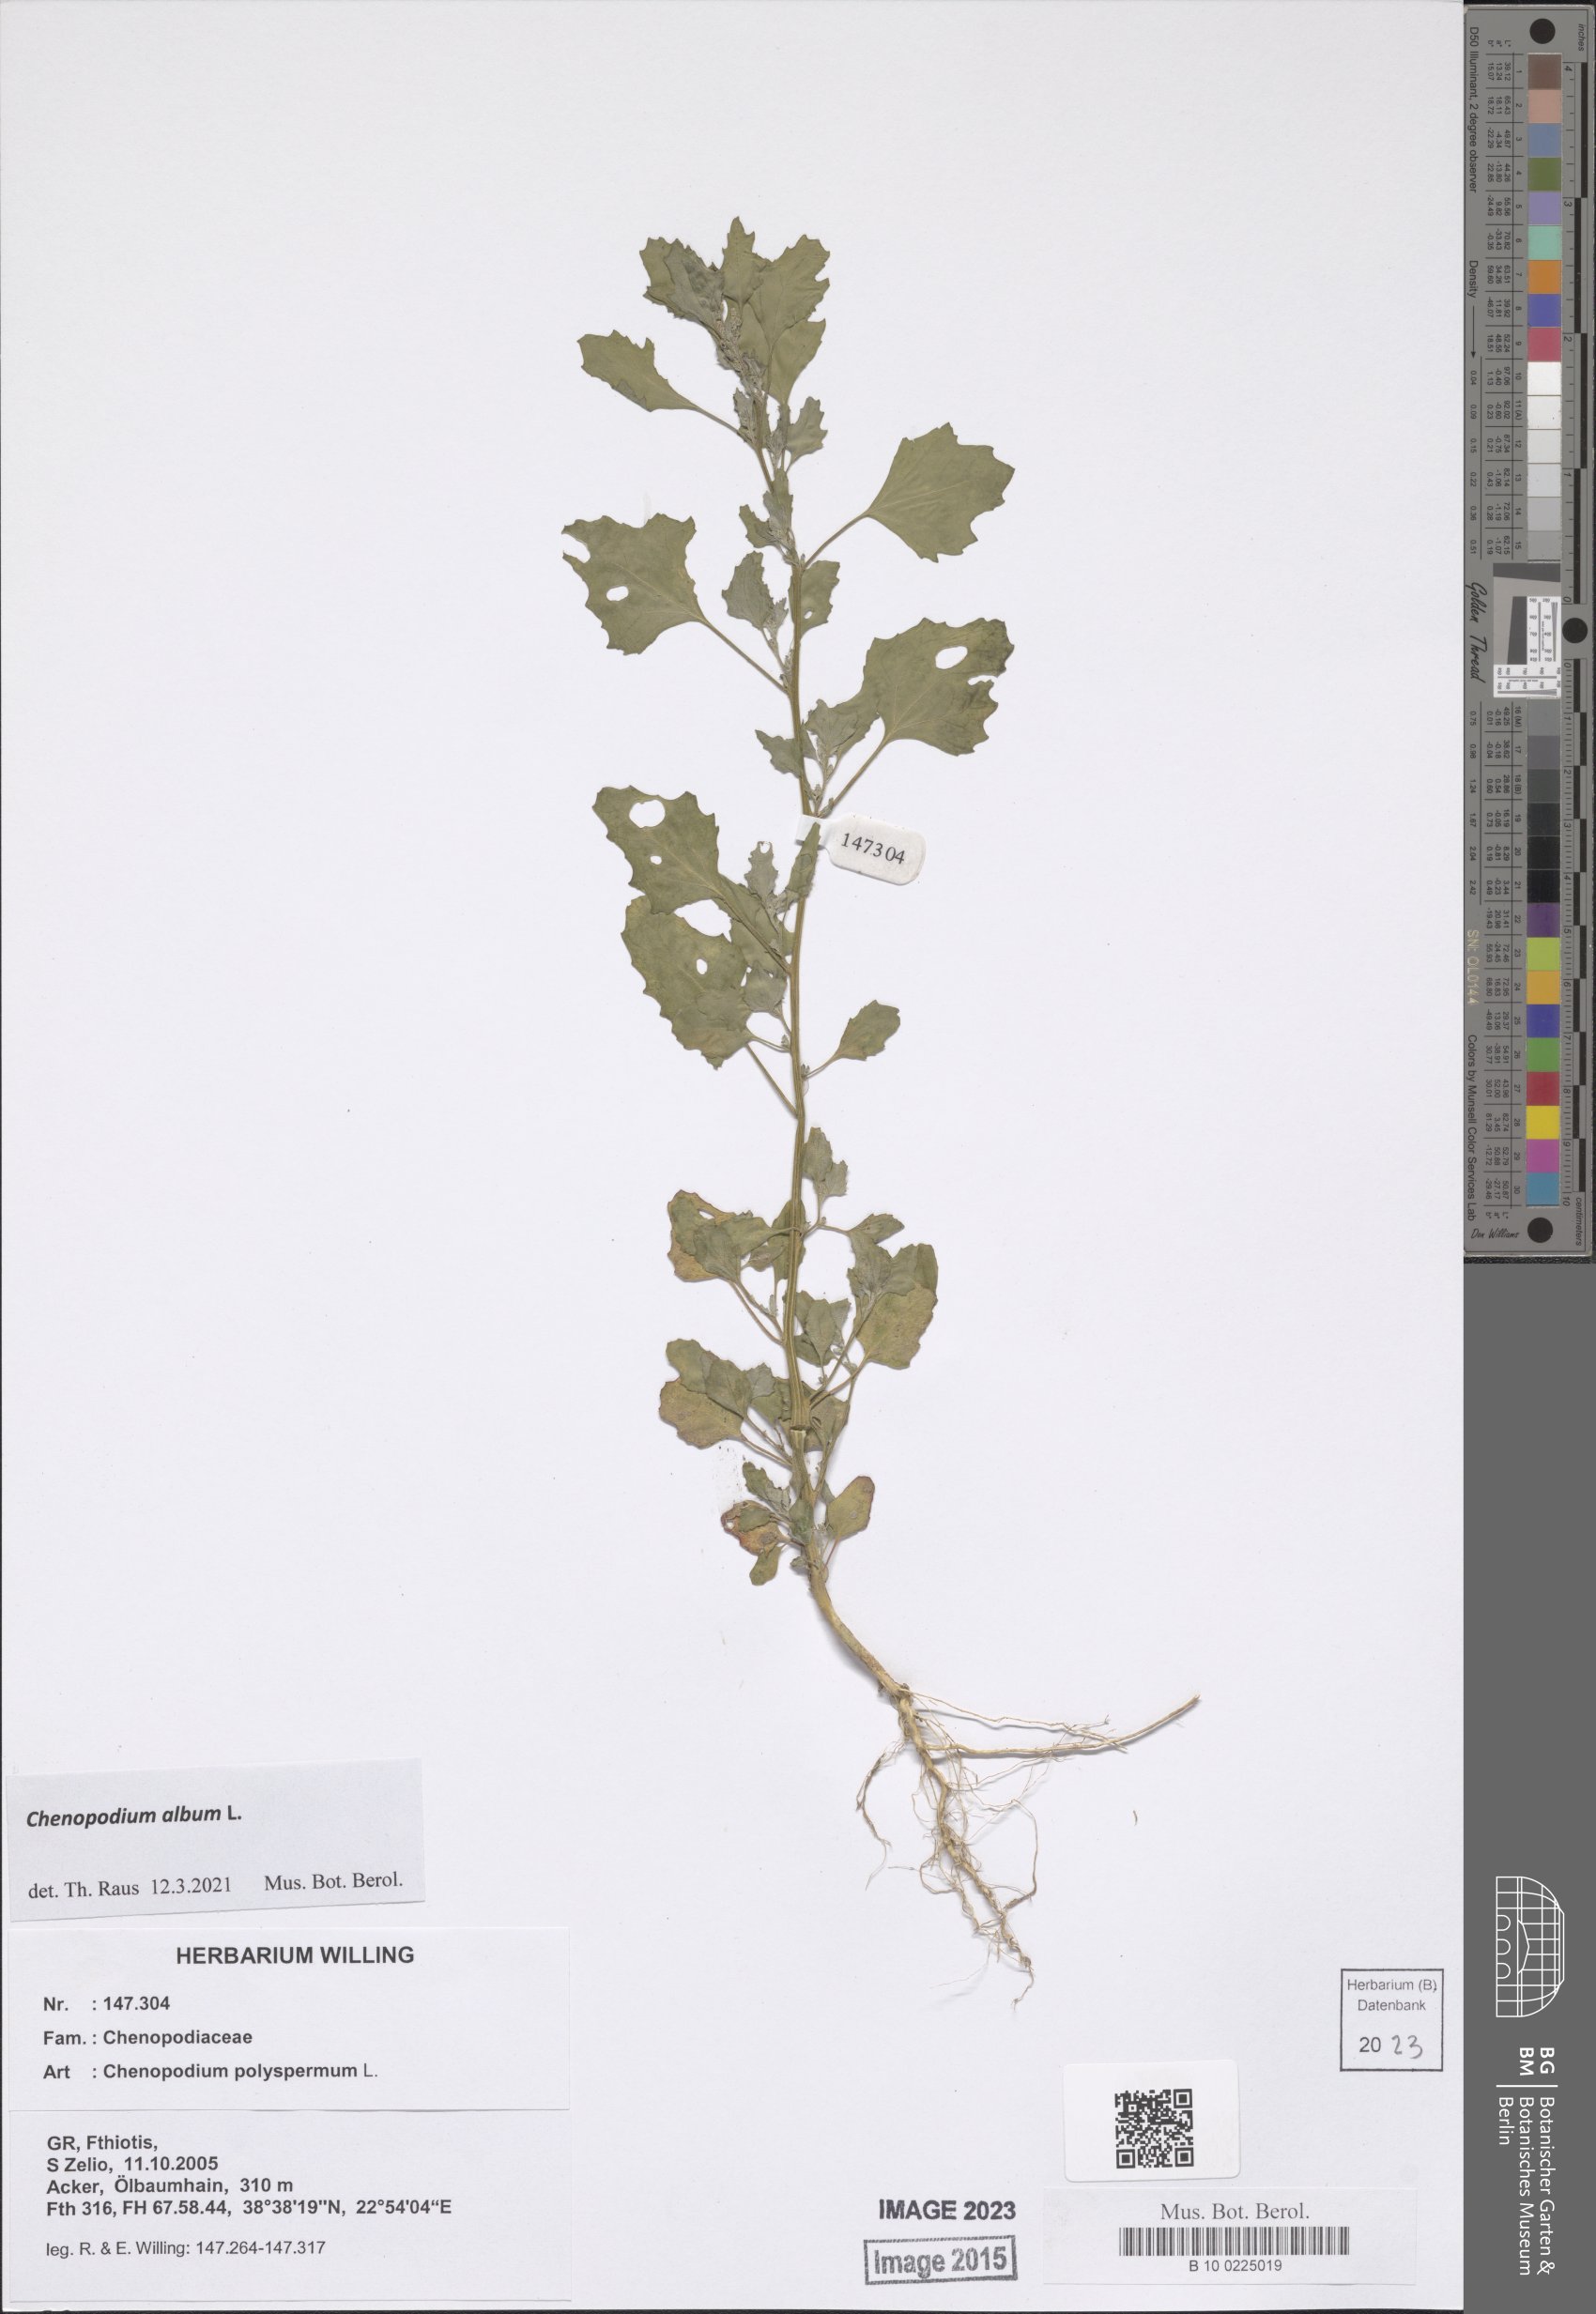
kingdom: Plantae
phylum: Tracheophyta
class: Magnoliopsida
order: Caryophyllales
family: Amaranthaceae
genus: Chenopodium
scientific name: Chenopodium album
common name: Fat-hen
